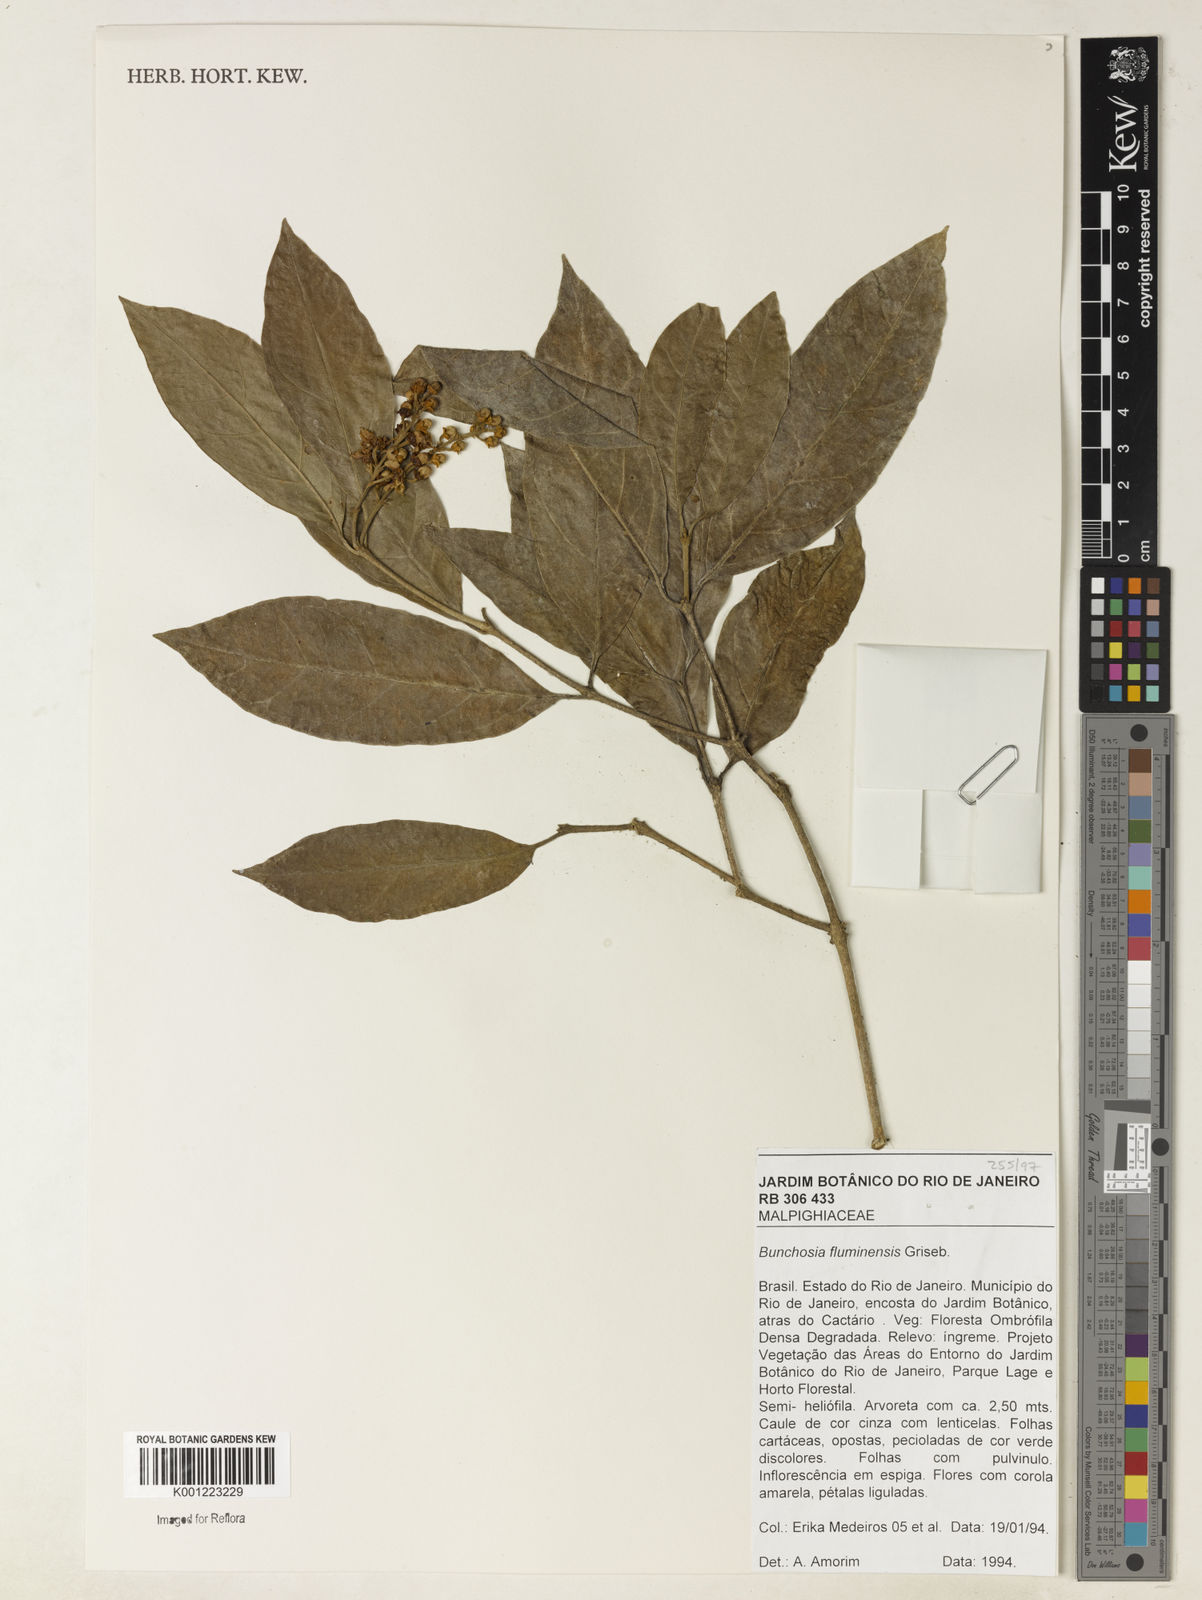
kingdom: Plantae
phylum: Tracheophyta
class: Magnoliopsida
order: Malpighiales
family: Malpighiaceae
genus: Bunchosia
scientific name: Bunchosia fluminensis
